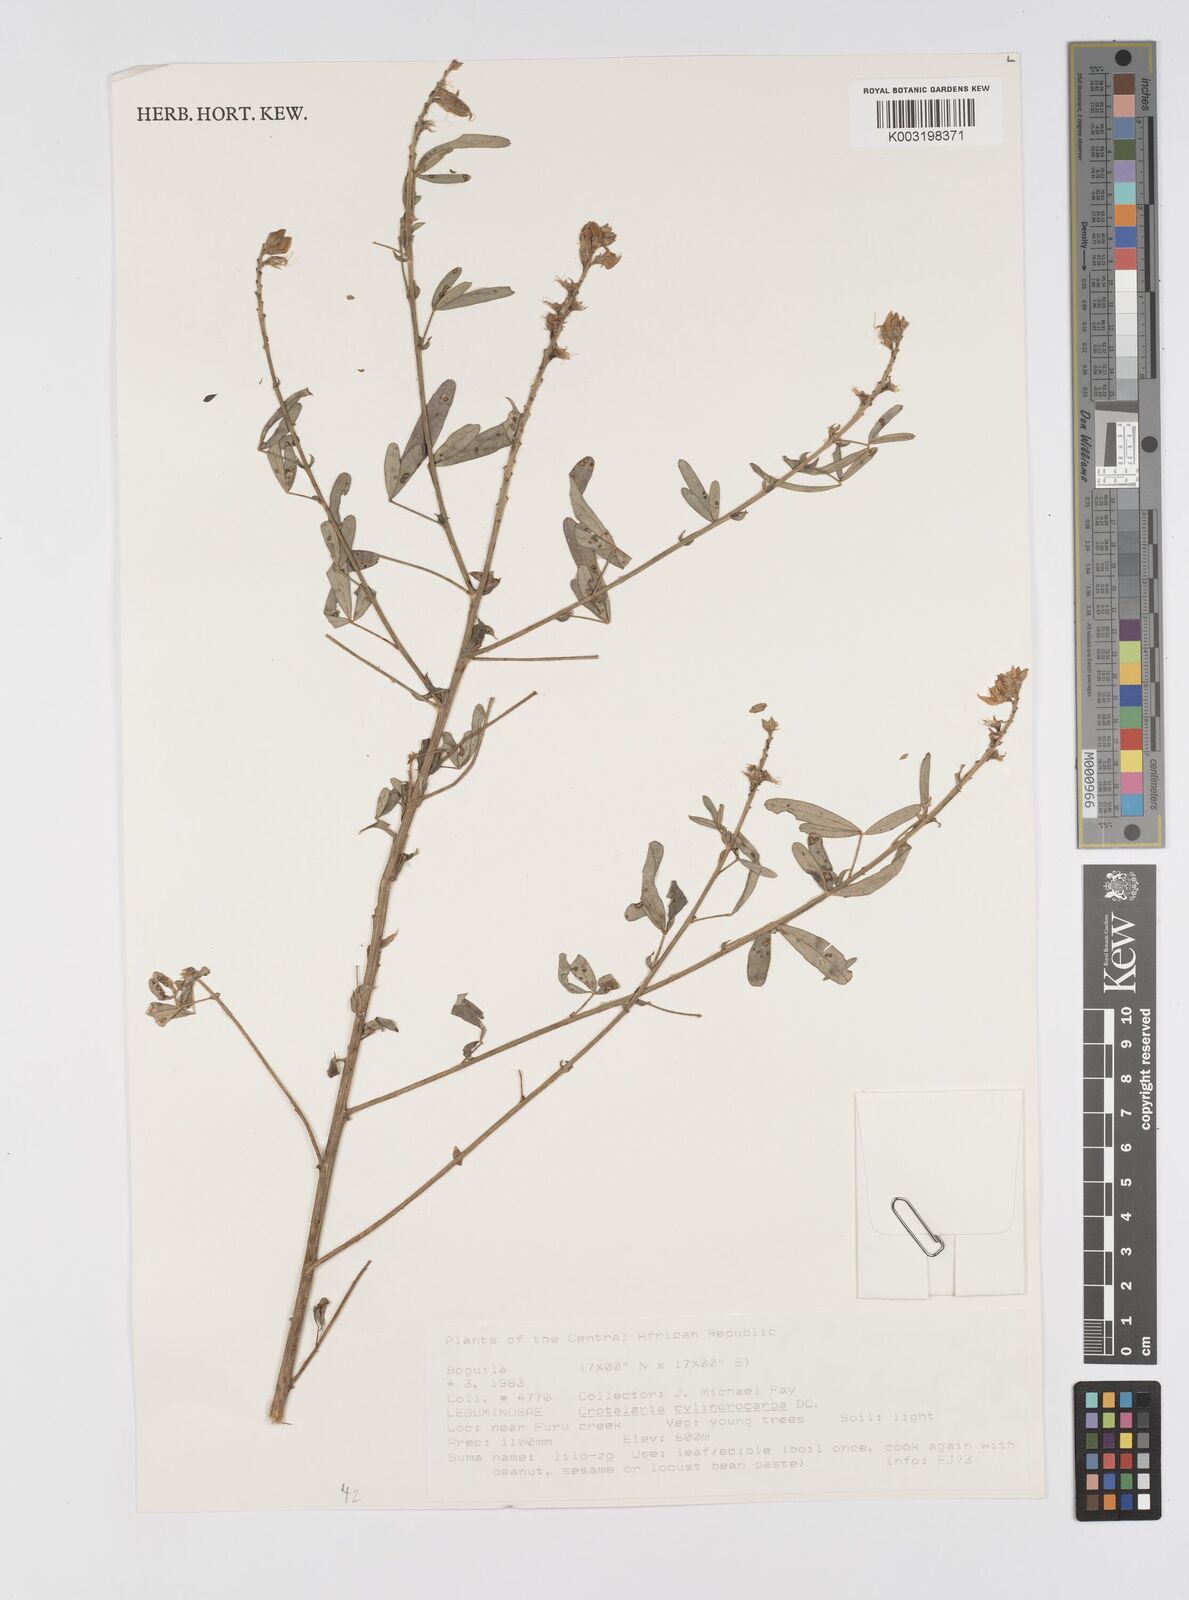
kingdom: Plantae
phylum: Tracheophyta
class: Magnoliopsida
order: Fabales
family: Fabaceae
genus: Crotalaria
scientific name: Crotalaria cylindrocarpa
